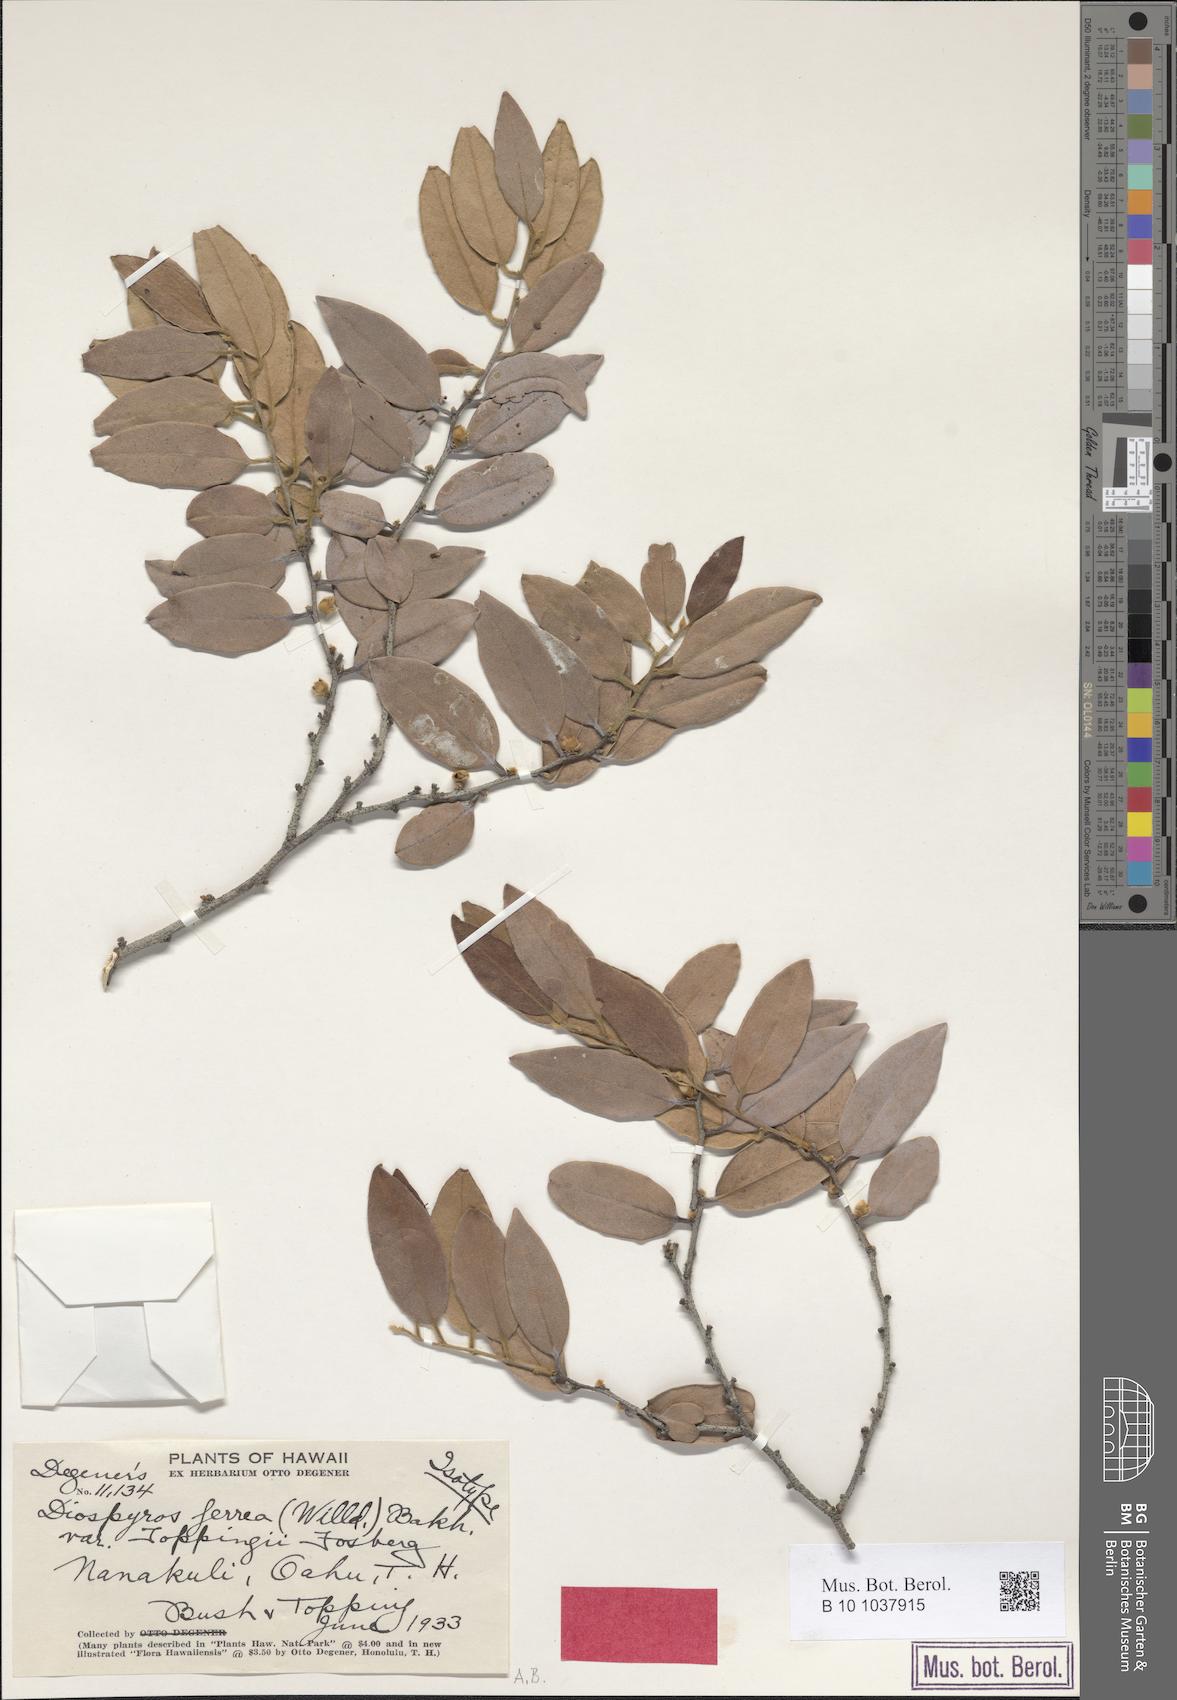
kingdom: Plantae
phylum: Tracheophyta
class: Magnoliopsida
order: Ericales
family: Ebenaceae
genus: Diospyros
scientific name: Diospyros sandwicensis
